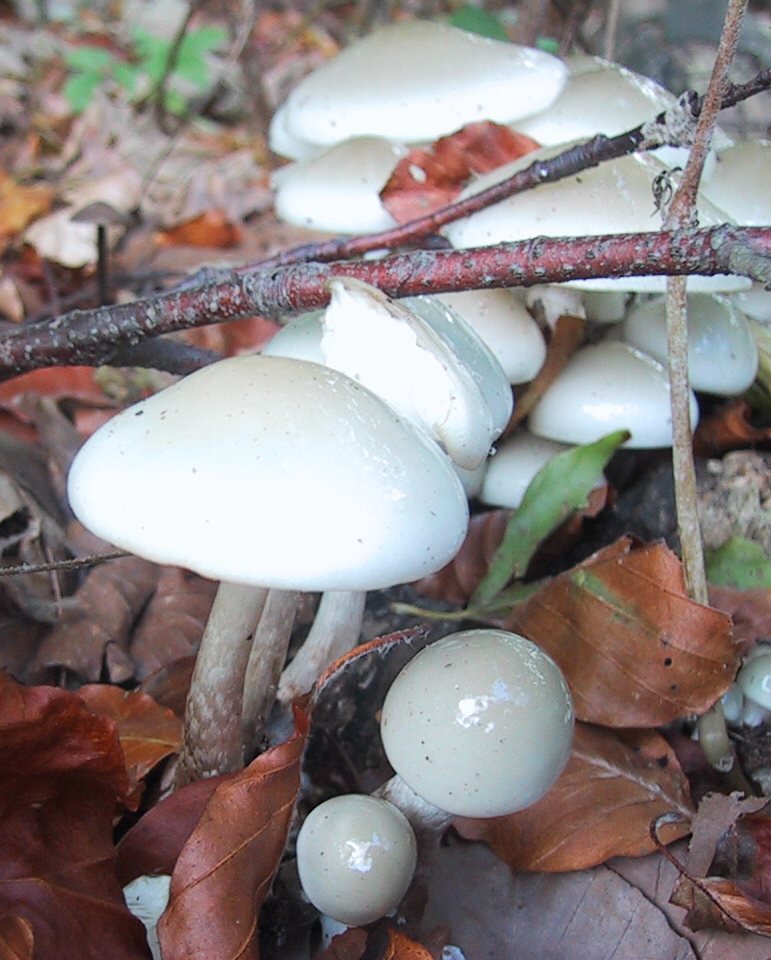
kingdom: Fungi
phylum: Basidiomycota
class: Agaricomycetes
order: Agaricales
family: Physalacriaceae
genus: Mucidula
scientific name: Mucidula mucida
